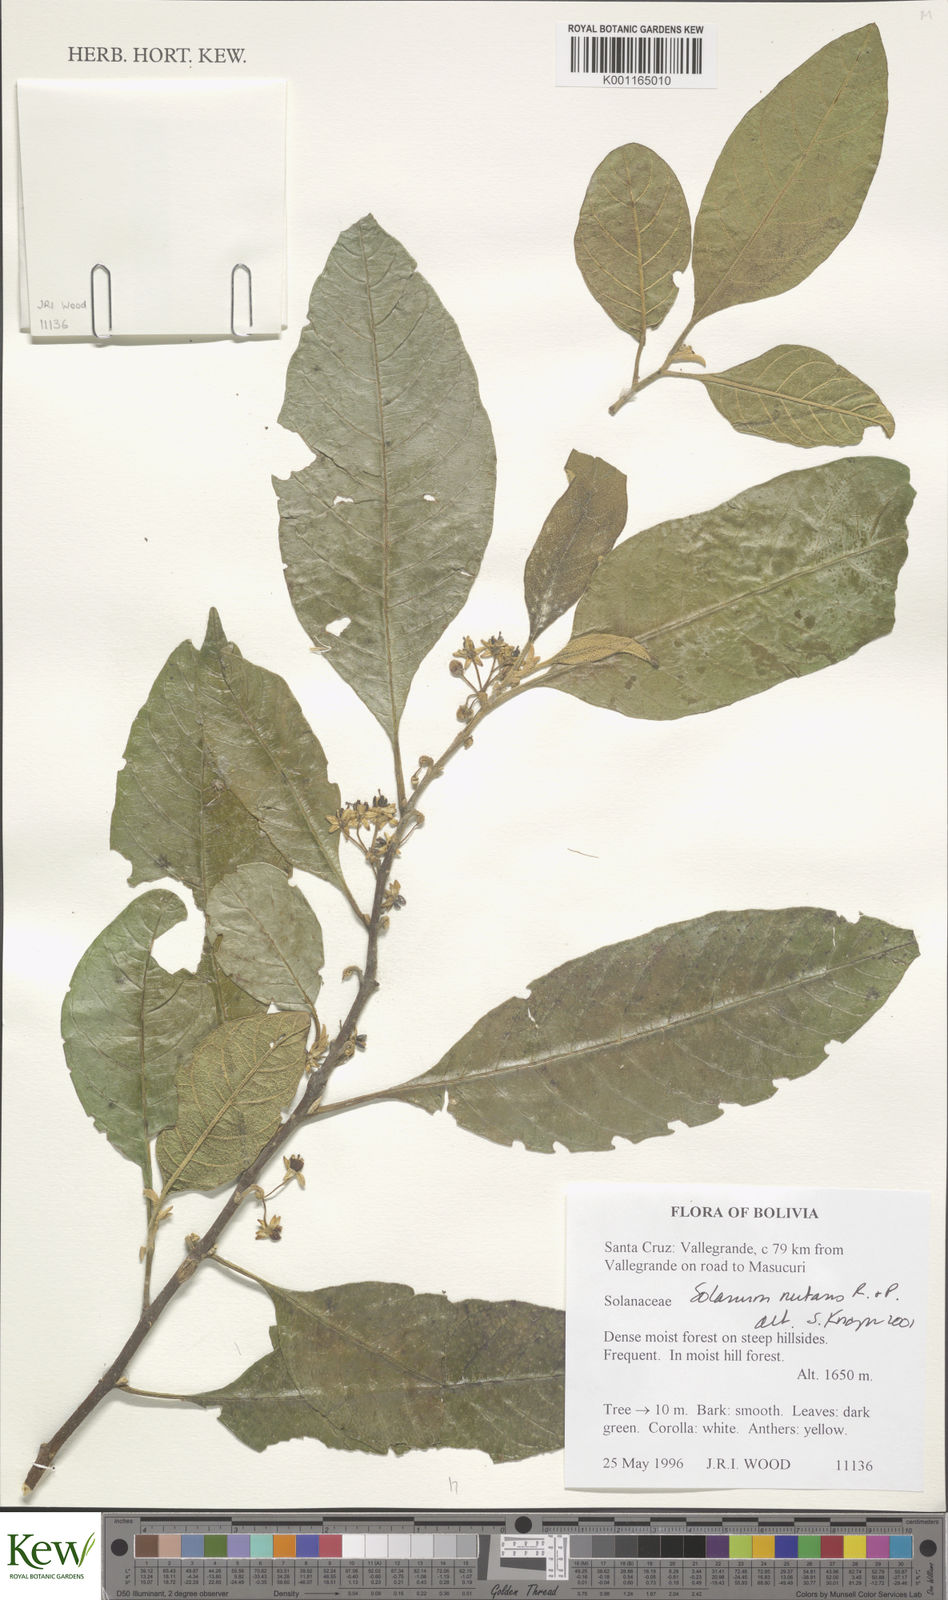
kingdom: Plantae
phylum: Tracheophyta
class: Magnoliopsida
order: Solanales
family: Solanaceae
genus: Solanum
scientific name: Solanum nutans
